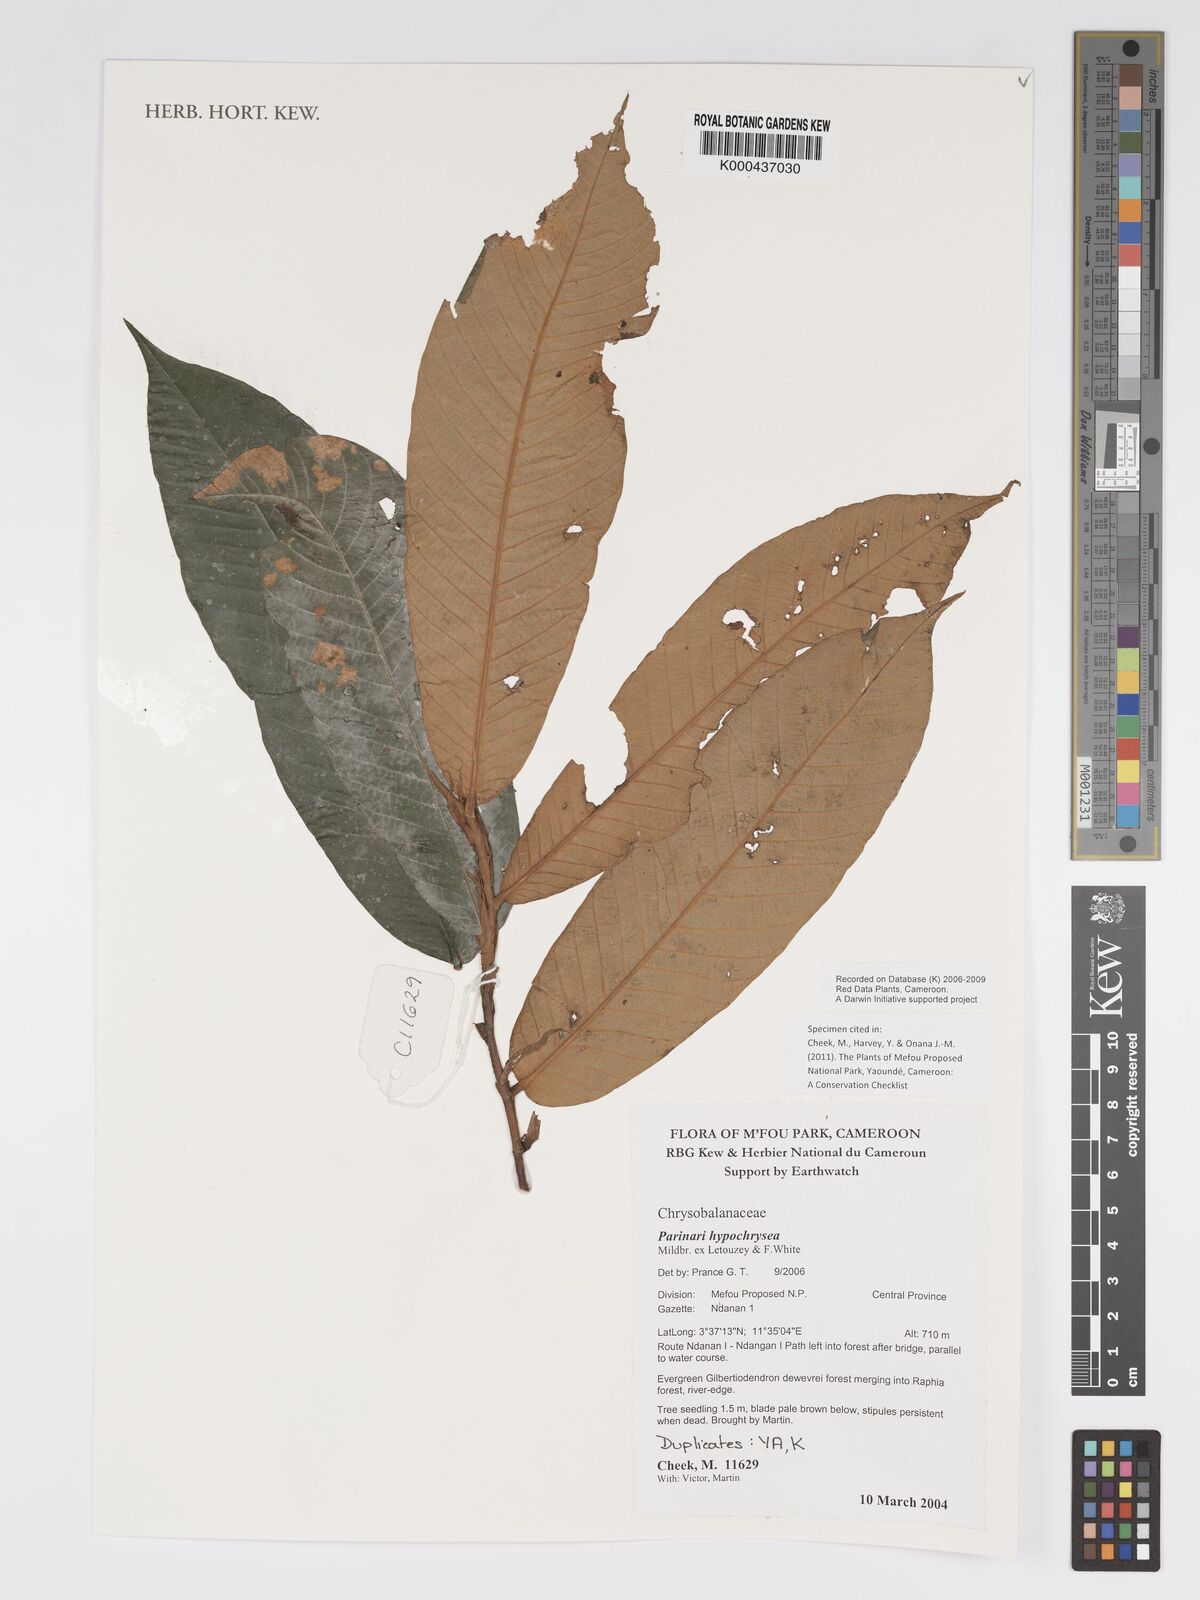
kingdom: Plantae
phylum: Tracheophyta
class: Magnoliopsida
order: Malpighiales
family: Chrysobalanaceae
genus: Parinari
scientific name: Parinari hypochrysea
